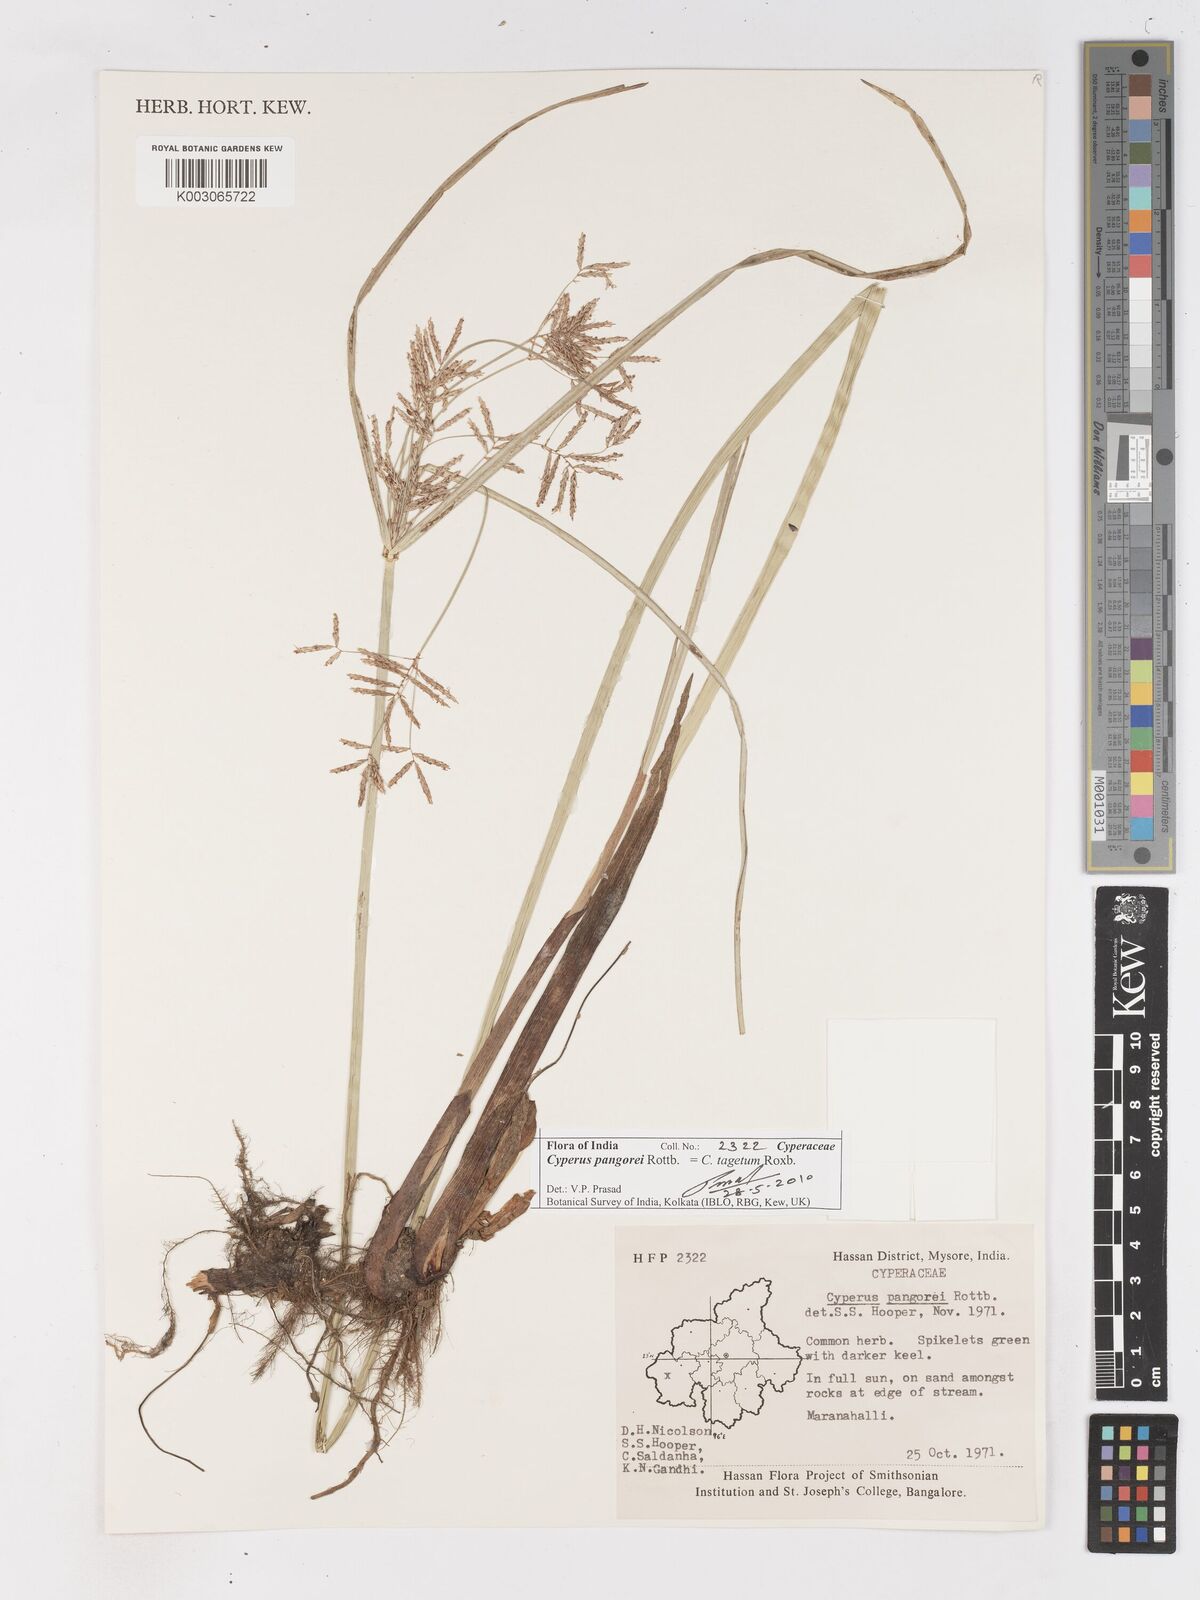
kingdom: Plantae
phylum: Tracheophyta
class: Liliopsida
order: Poales
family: Cyperaceae
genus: Cyperus
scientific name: Cyperus pangorei
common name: Mat sedge
